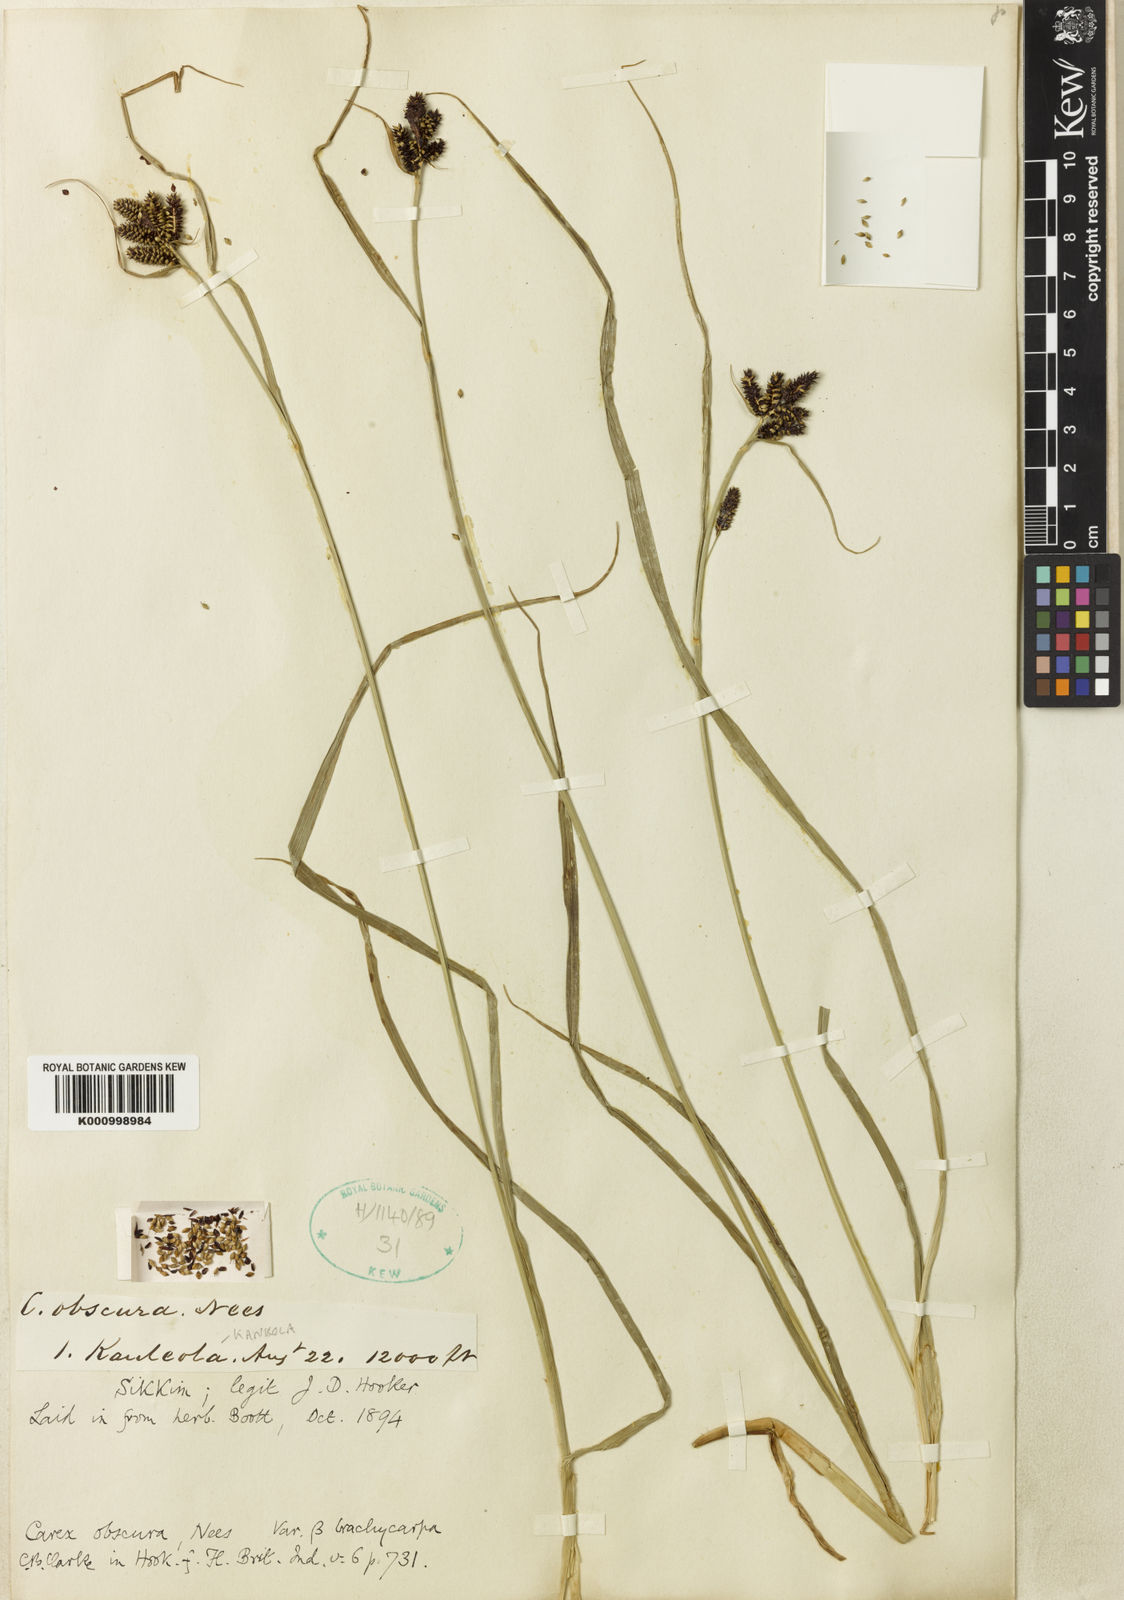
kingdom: Plantae
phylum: Tracheophyta
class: Liliopsida
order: Poales
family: Cyperaceae
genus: Carex
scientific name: Carex obscura
